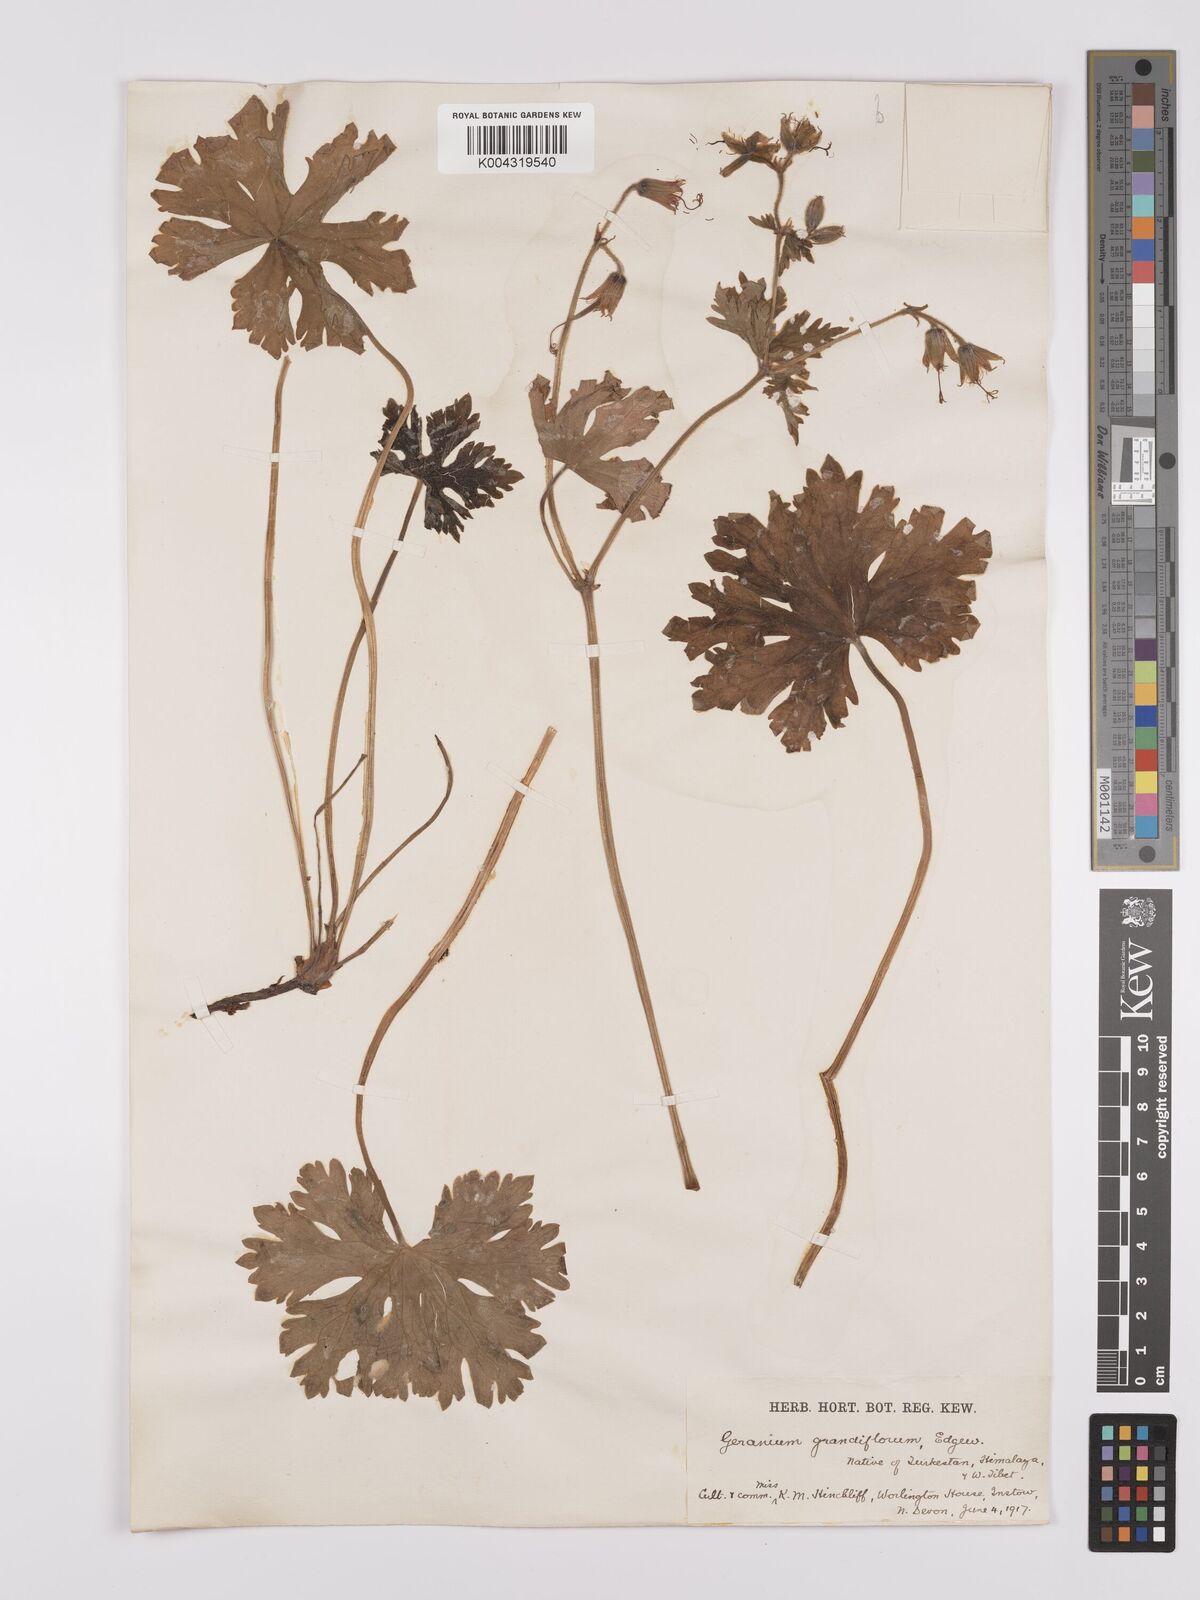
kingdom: Plantae
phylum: Tracheophyta
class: Magnoliopsida
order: Geraniales
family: Geraniaceae
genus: Geranium
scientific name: Geranium himalayense
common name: Himalayan crane's-bill
